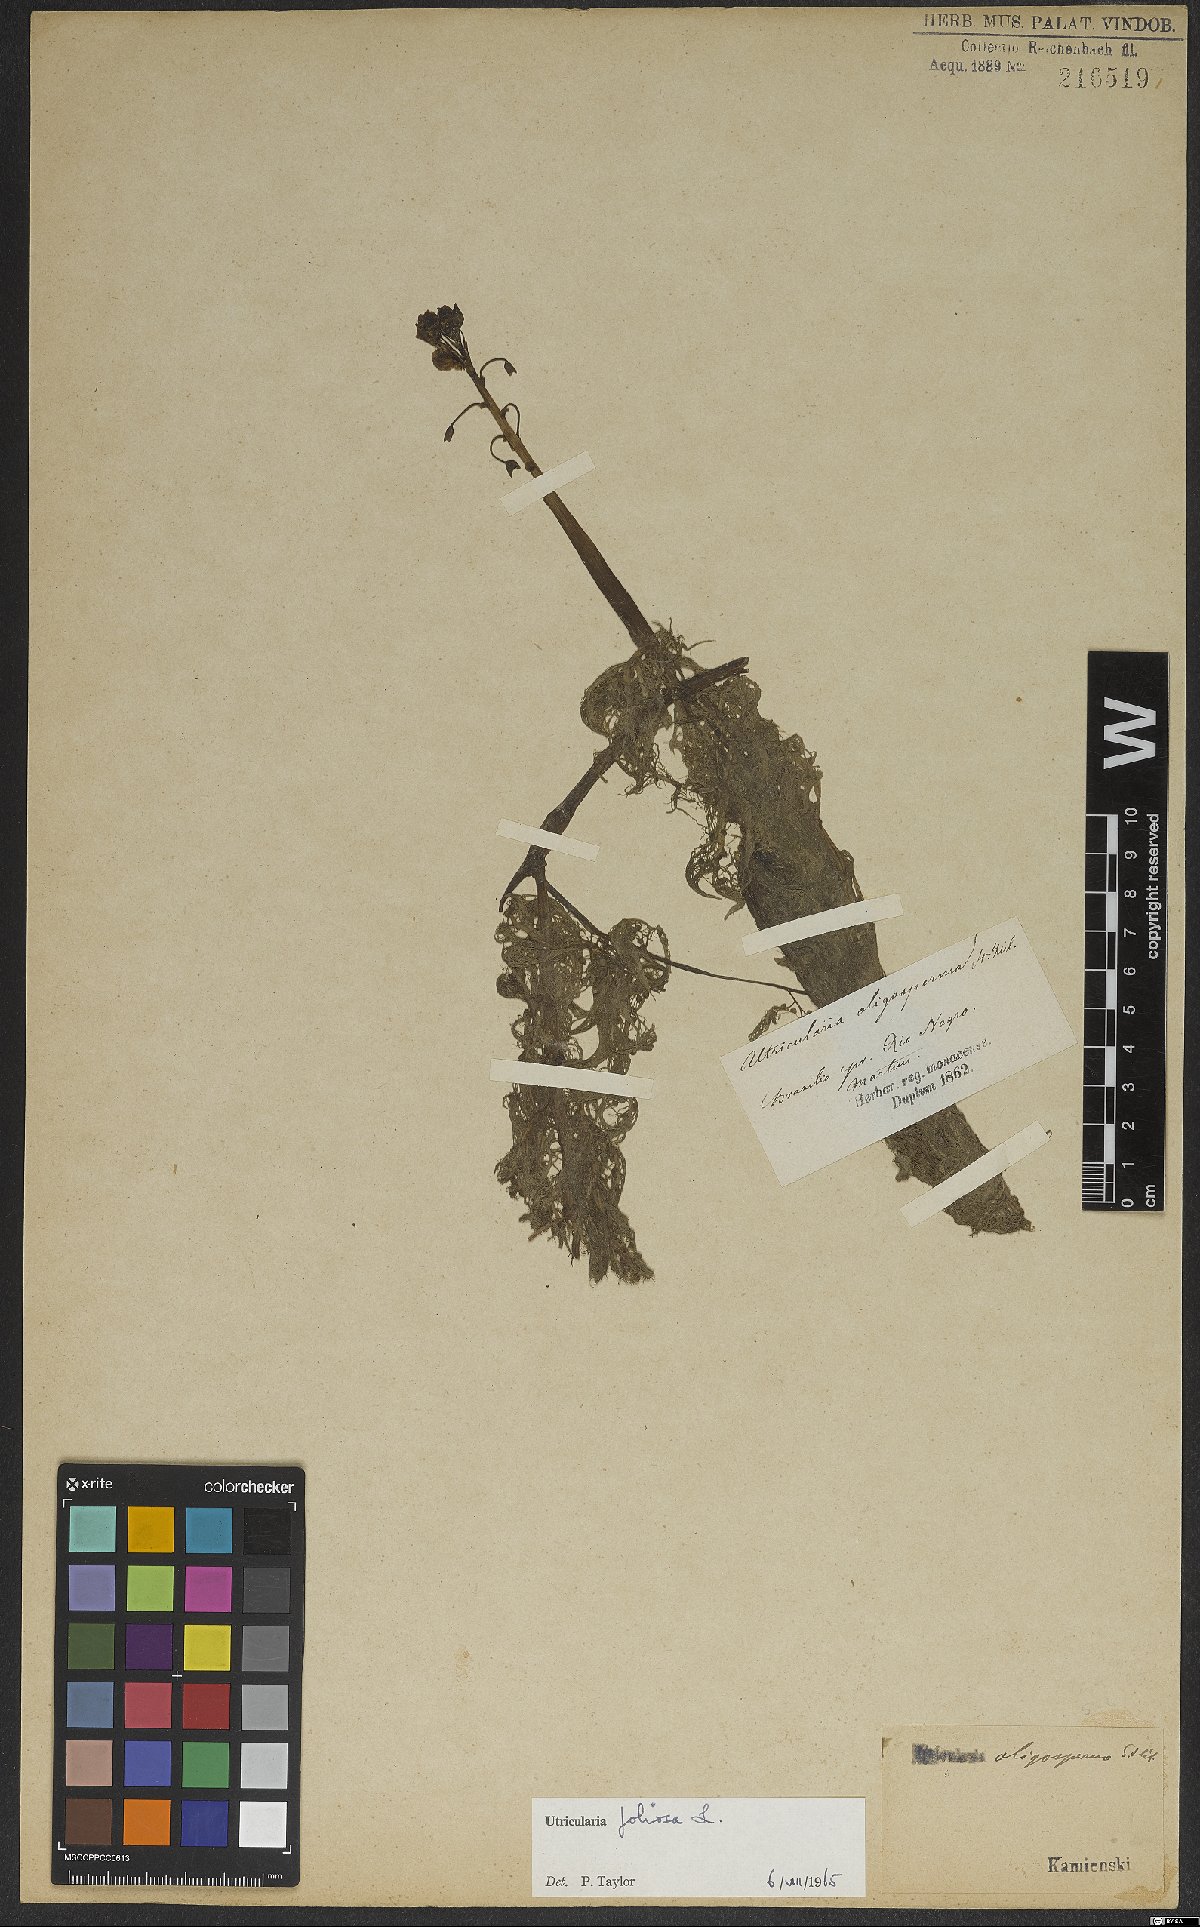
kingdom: Plantae
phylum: Tracheophyta
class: Magnoliopsida
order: Lamiales
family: Lentibulariaceae
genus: Utricularia
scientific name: Utricularia foliosa
